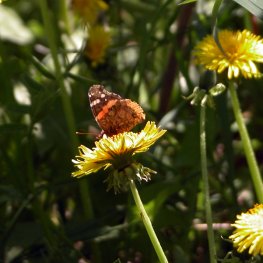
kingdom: Animalia
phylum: Arthropoda
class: Insecta
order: Lepidoptera
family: Nymphalidae
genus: Vanessa
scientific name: Vanessa atalanta
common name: Red Admiral
